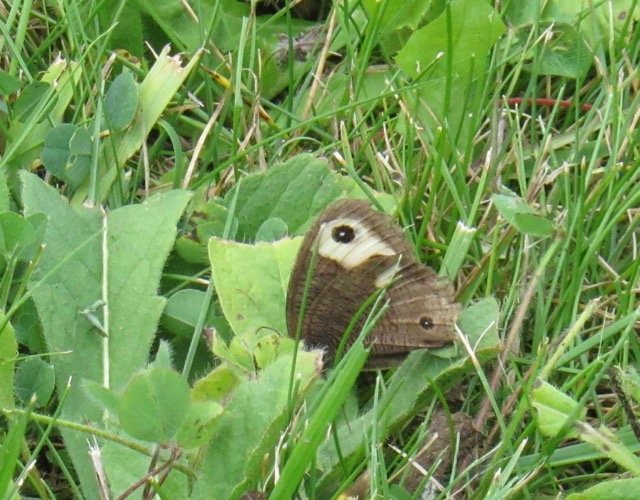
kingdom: Animalia
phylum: Arthropoda
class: Insecta
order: Lepidoptera
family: Nymphalidae
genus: Cercyonis
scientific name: Cercyonis pegala
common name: Common Wood-Nymph
